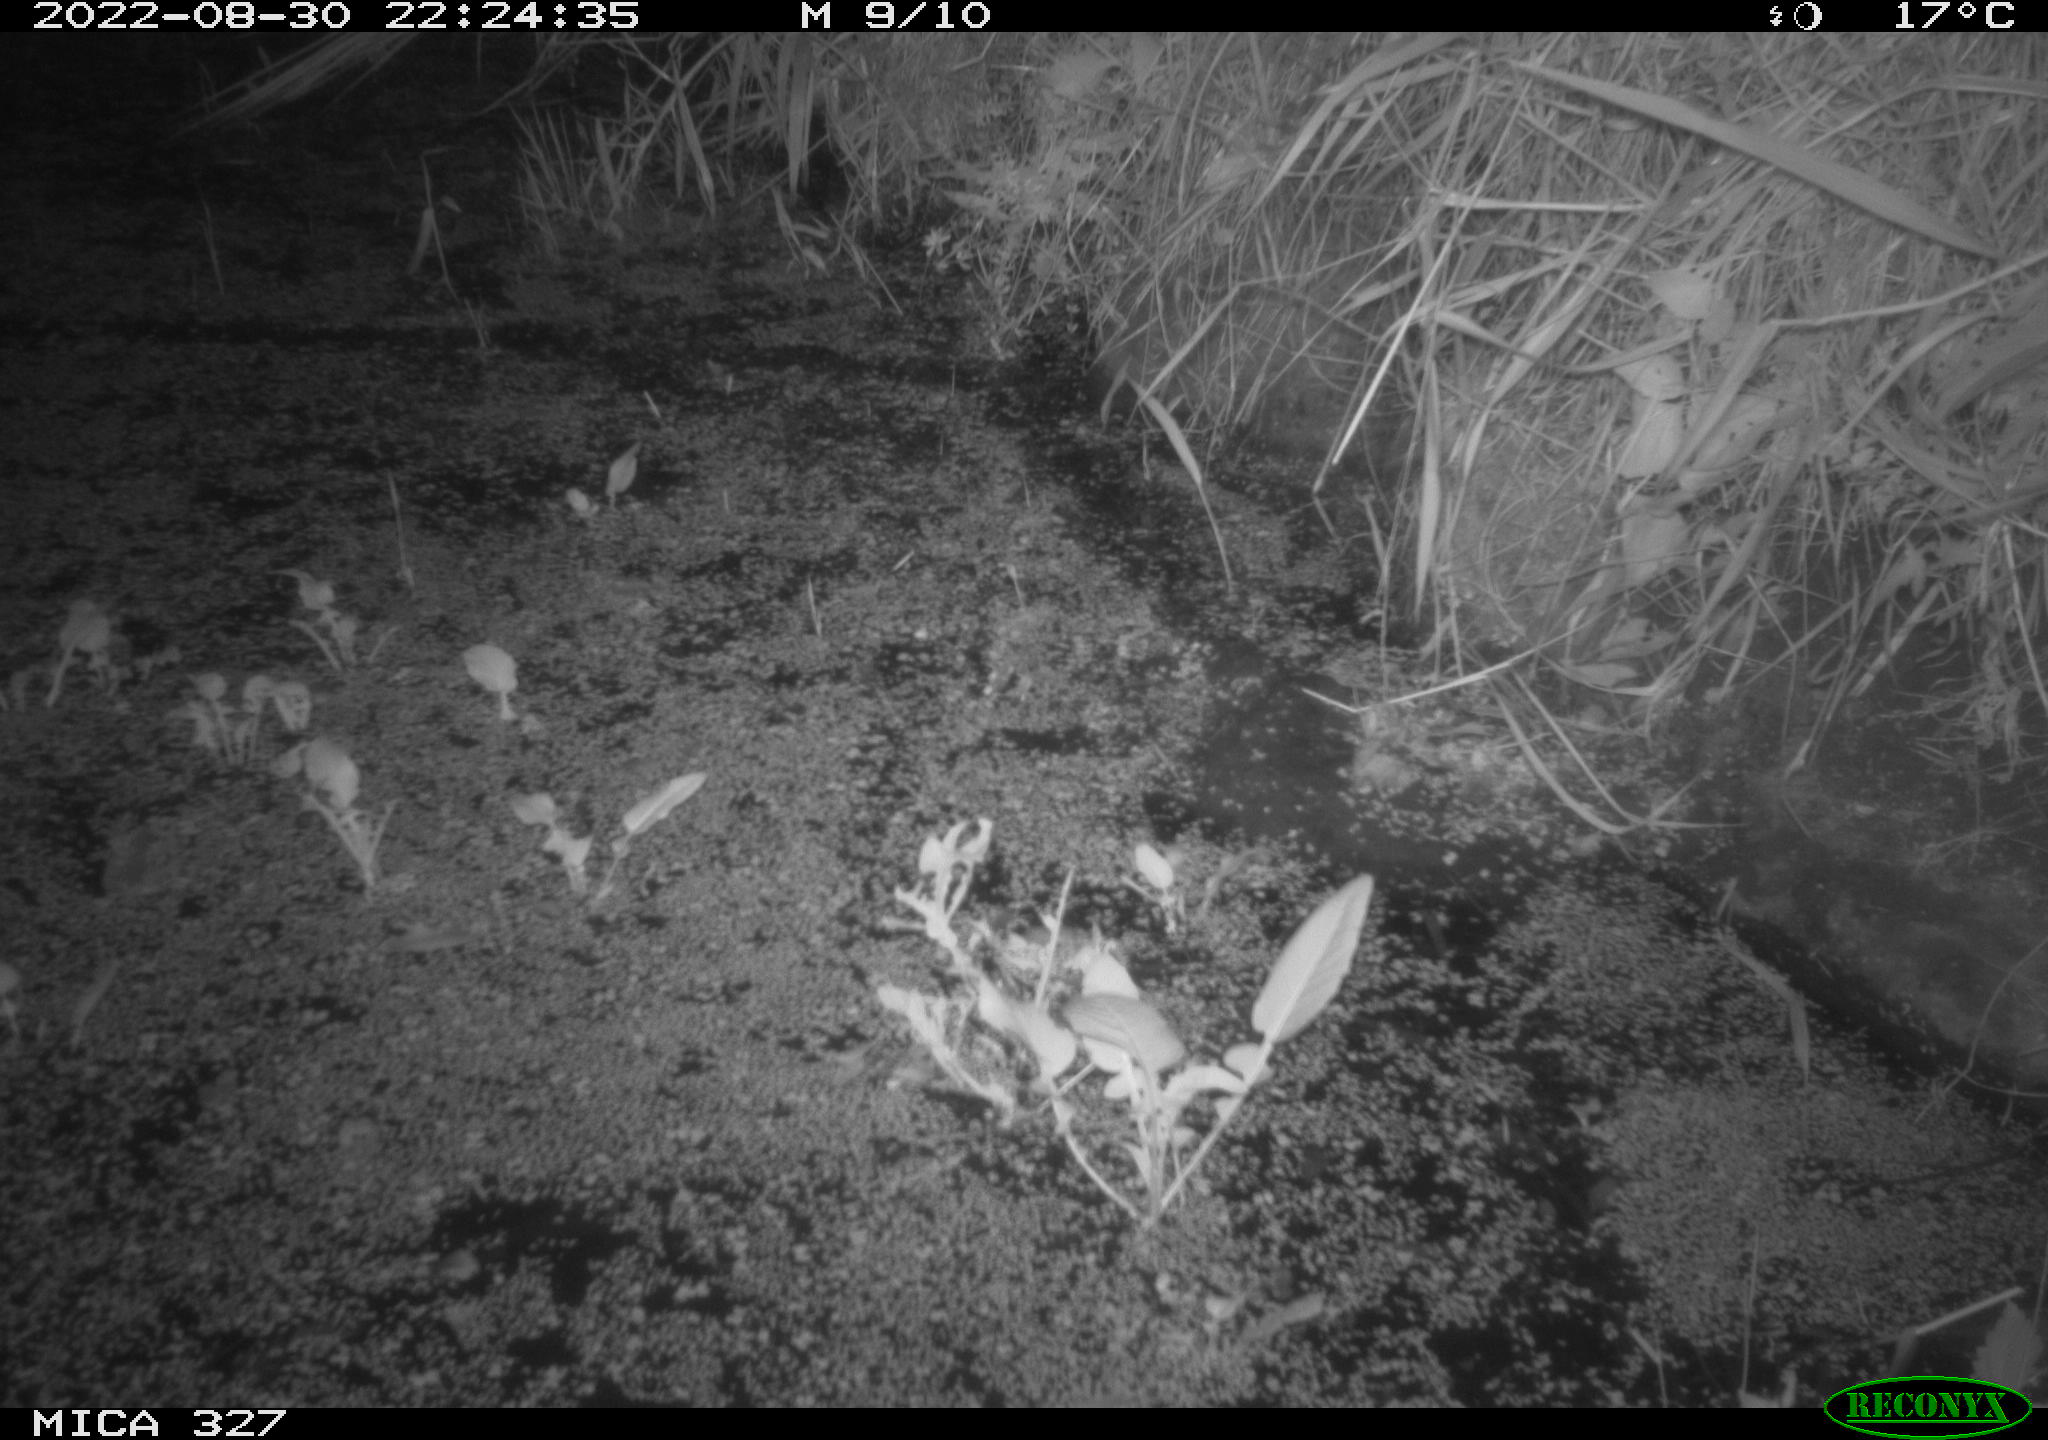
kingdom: Animalia
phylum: Chordata
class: Mammalia
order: Rodentia
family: Muridae
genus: Rattus
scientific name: Rattus norvegicus
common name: Brown rat
